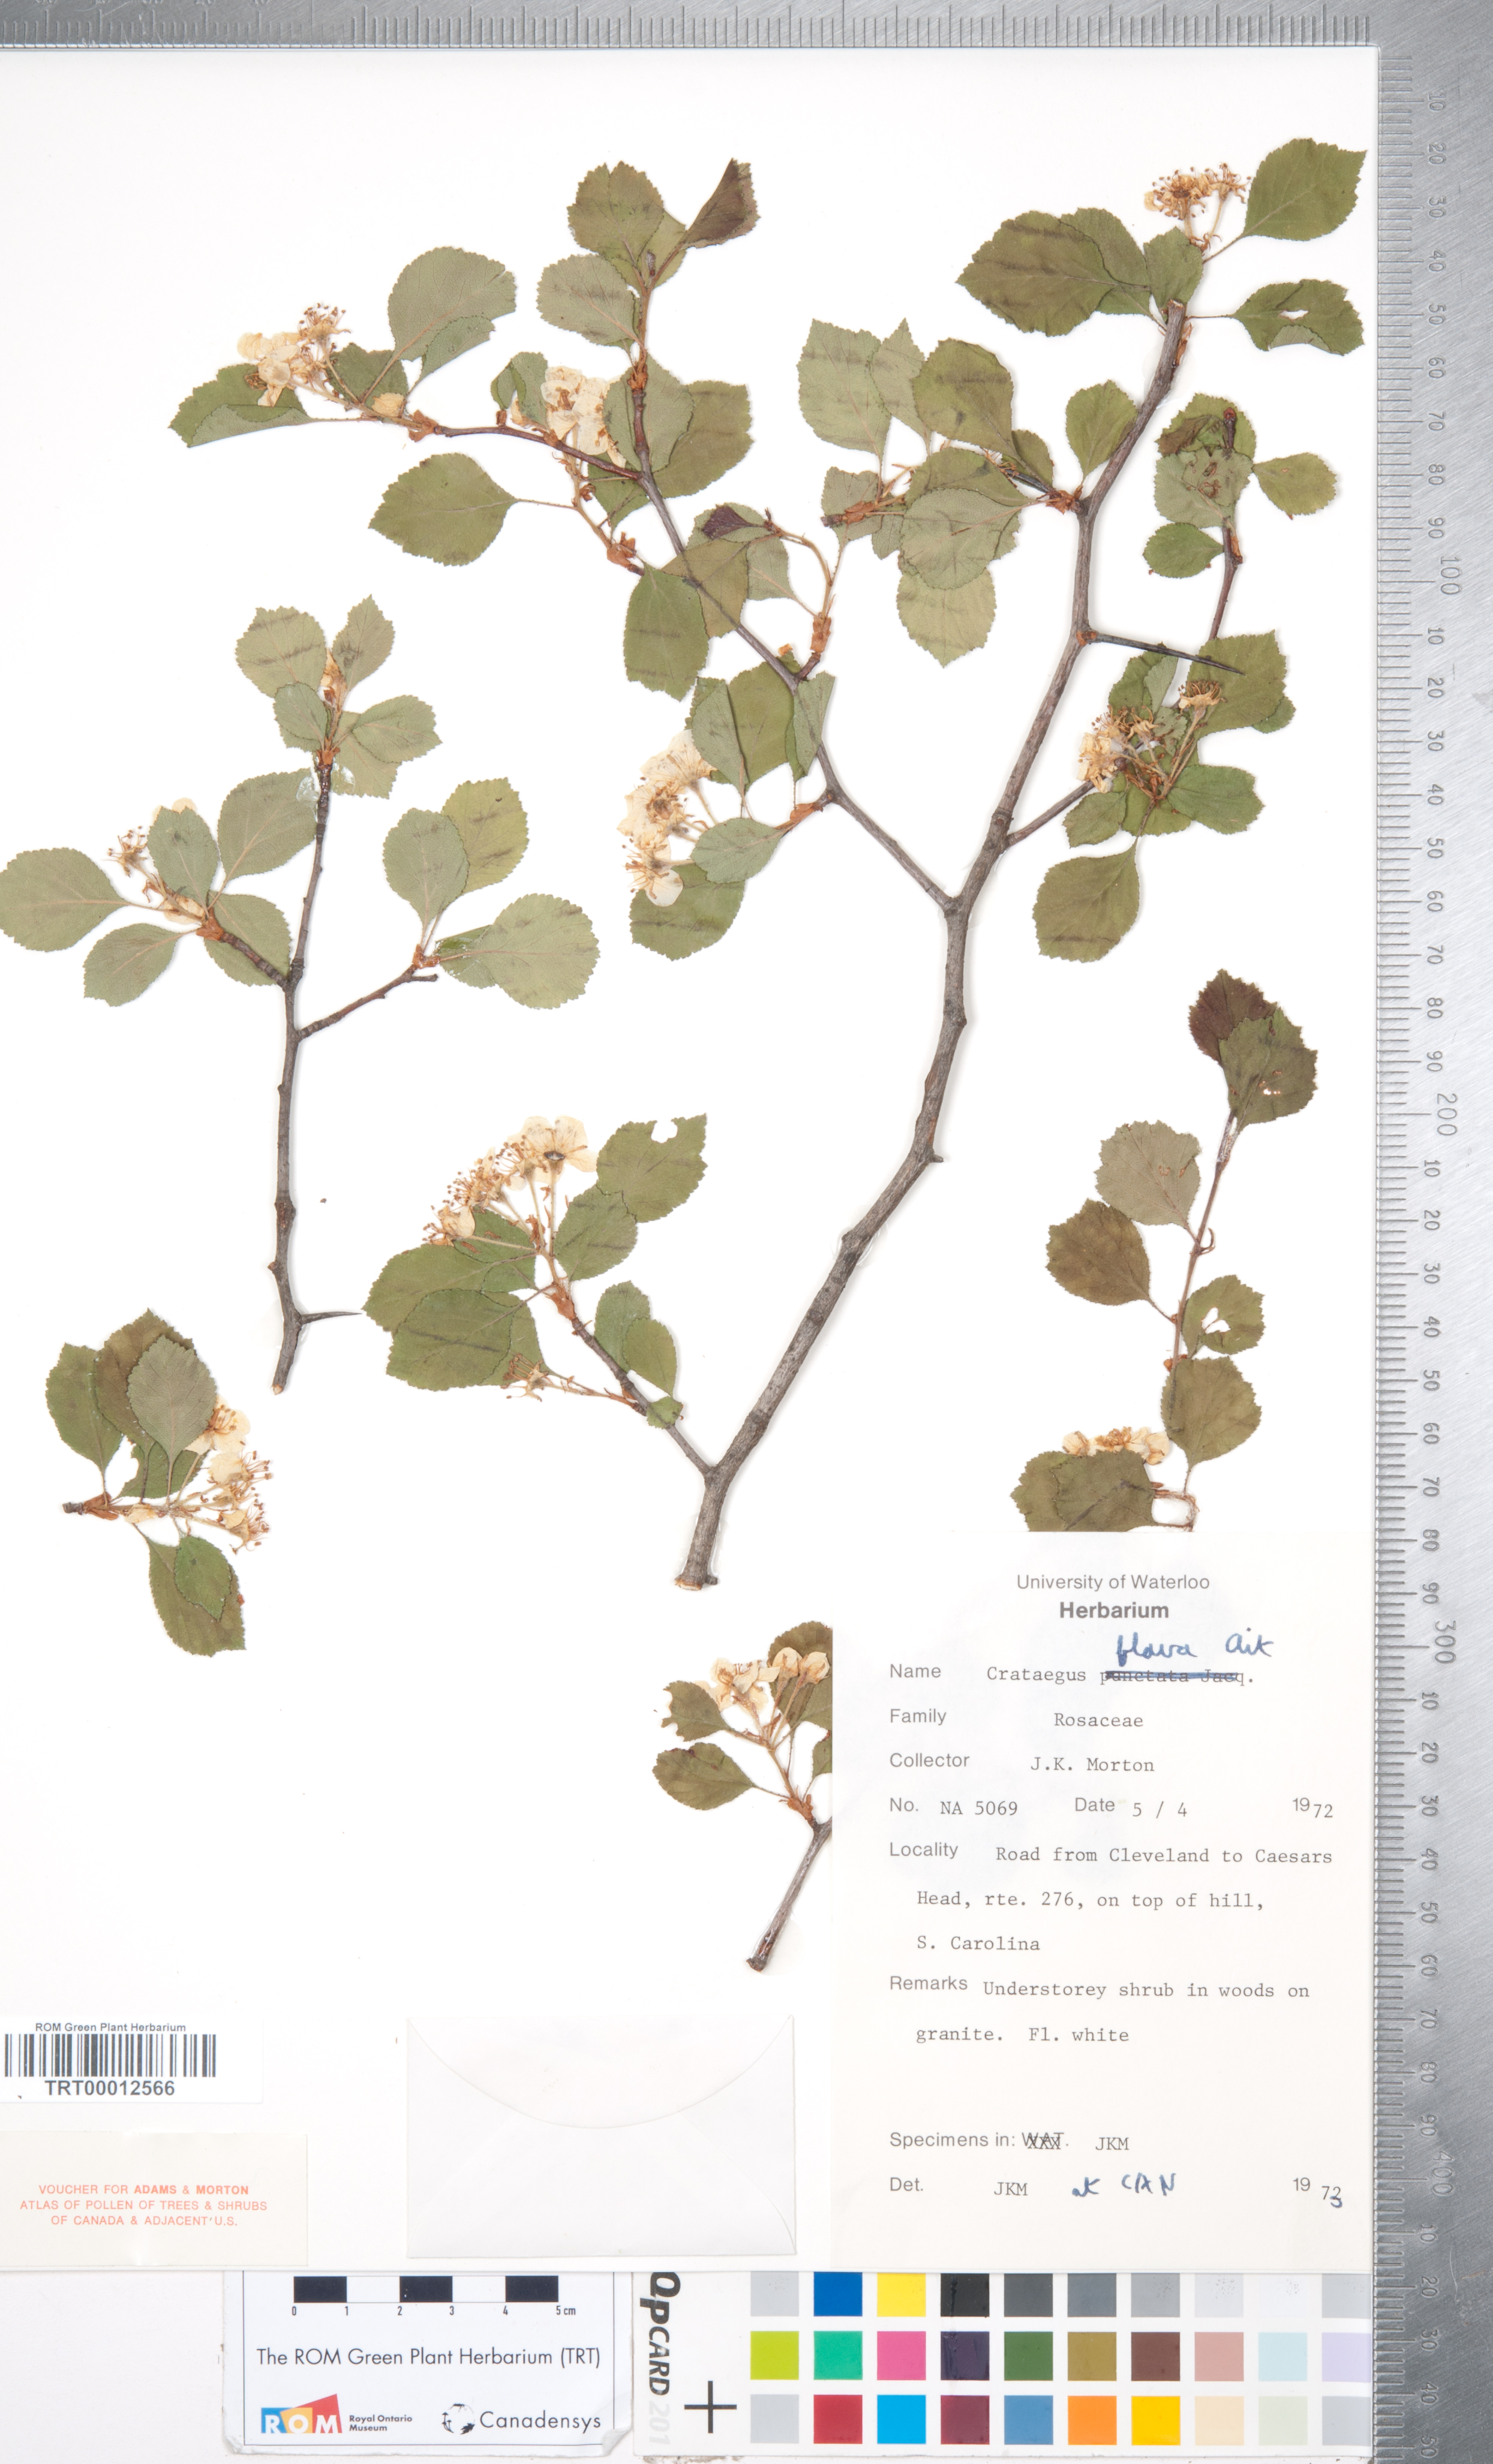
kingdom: Plantae
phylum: Tracheophyta
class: Magnoliopsida
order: Rosales
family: Rosaceae
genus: Crataegus
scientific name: Crataegus flava
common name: Yellow hawthorn
